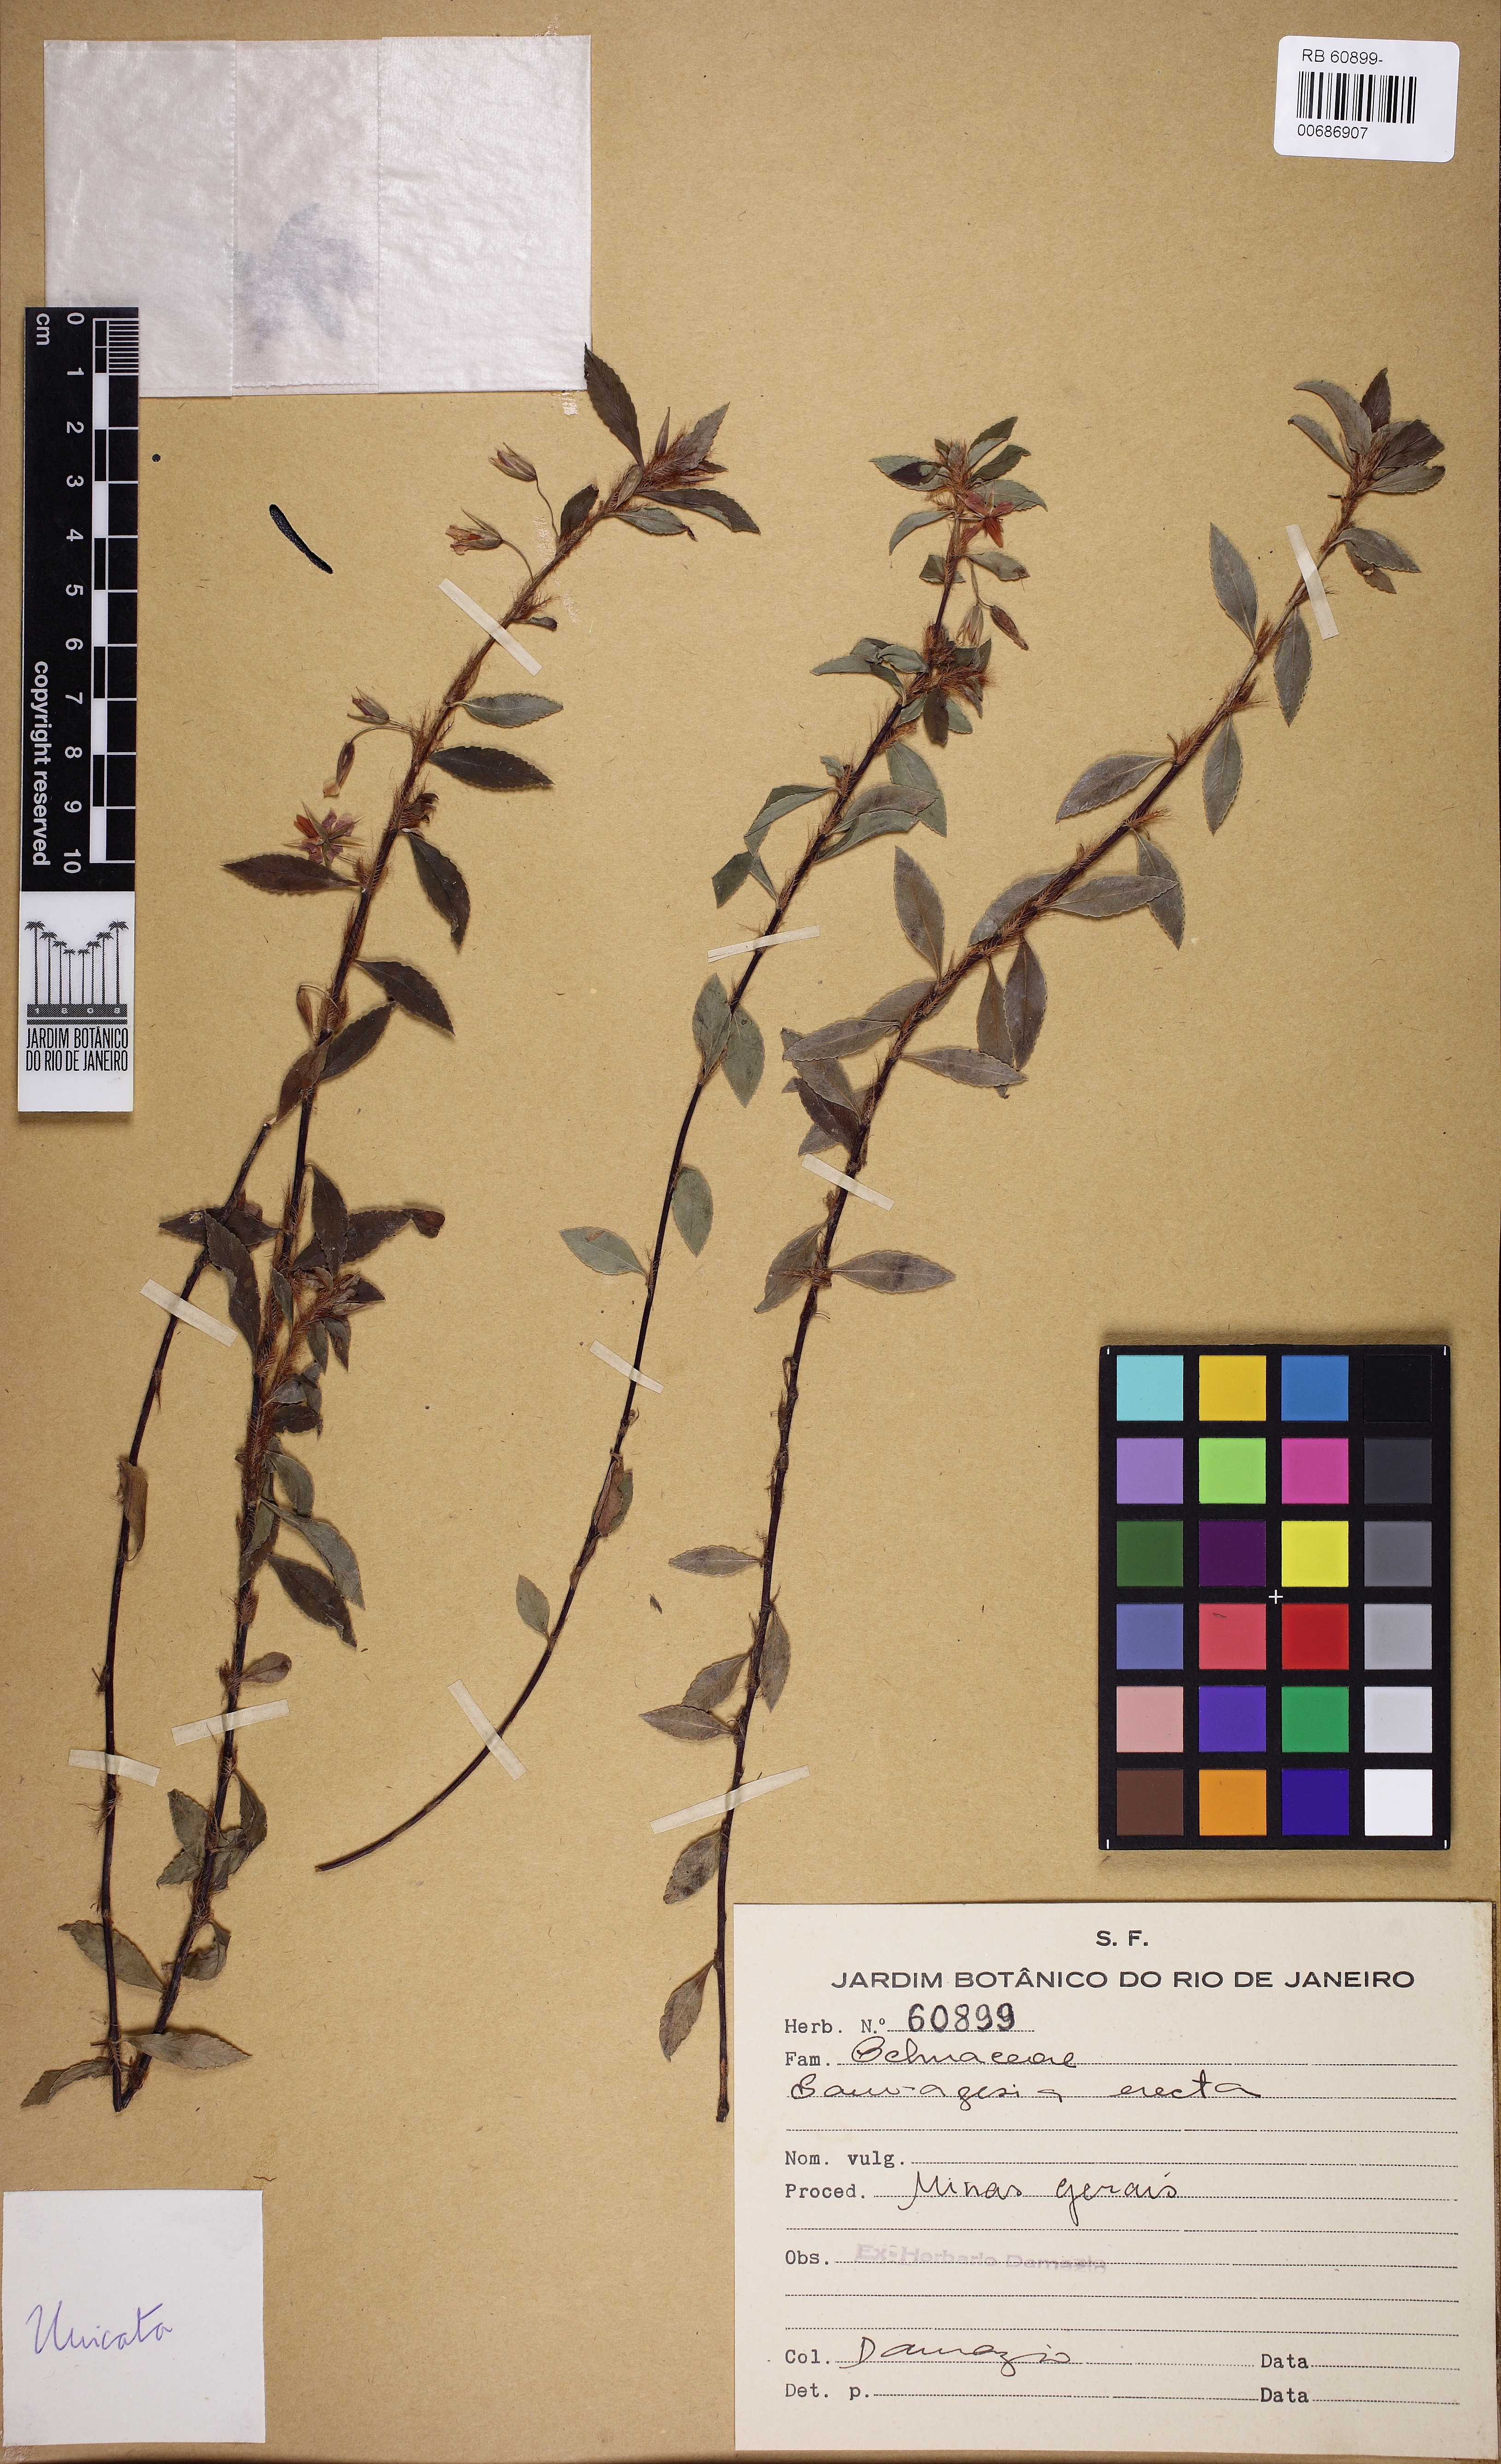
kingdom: Plantae
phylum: Tracheophyta
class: Magnoliopsida
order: Malpighiales
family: Ochnaceae
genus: Sauvagesia
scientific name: Sauvagesia erecta
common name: Creole tea
